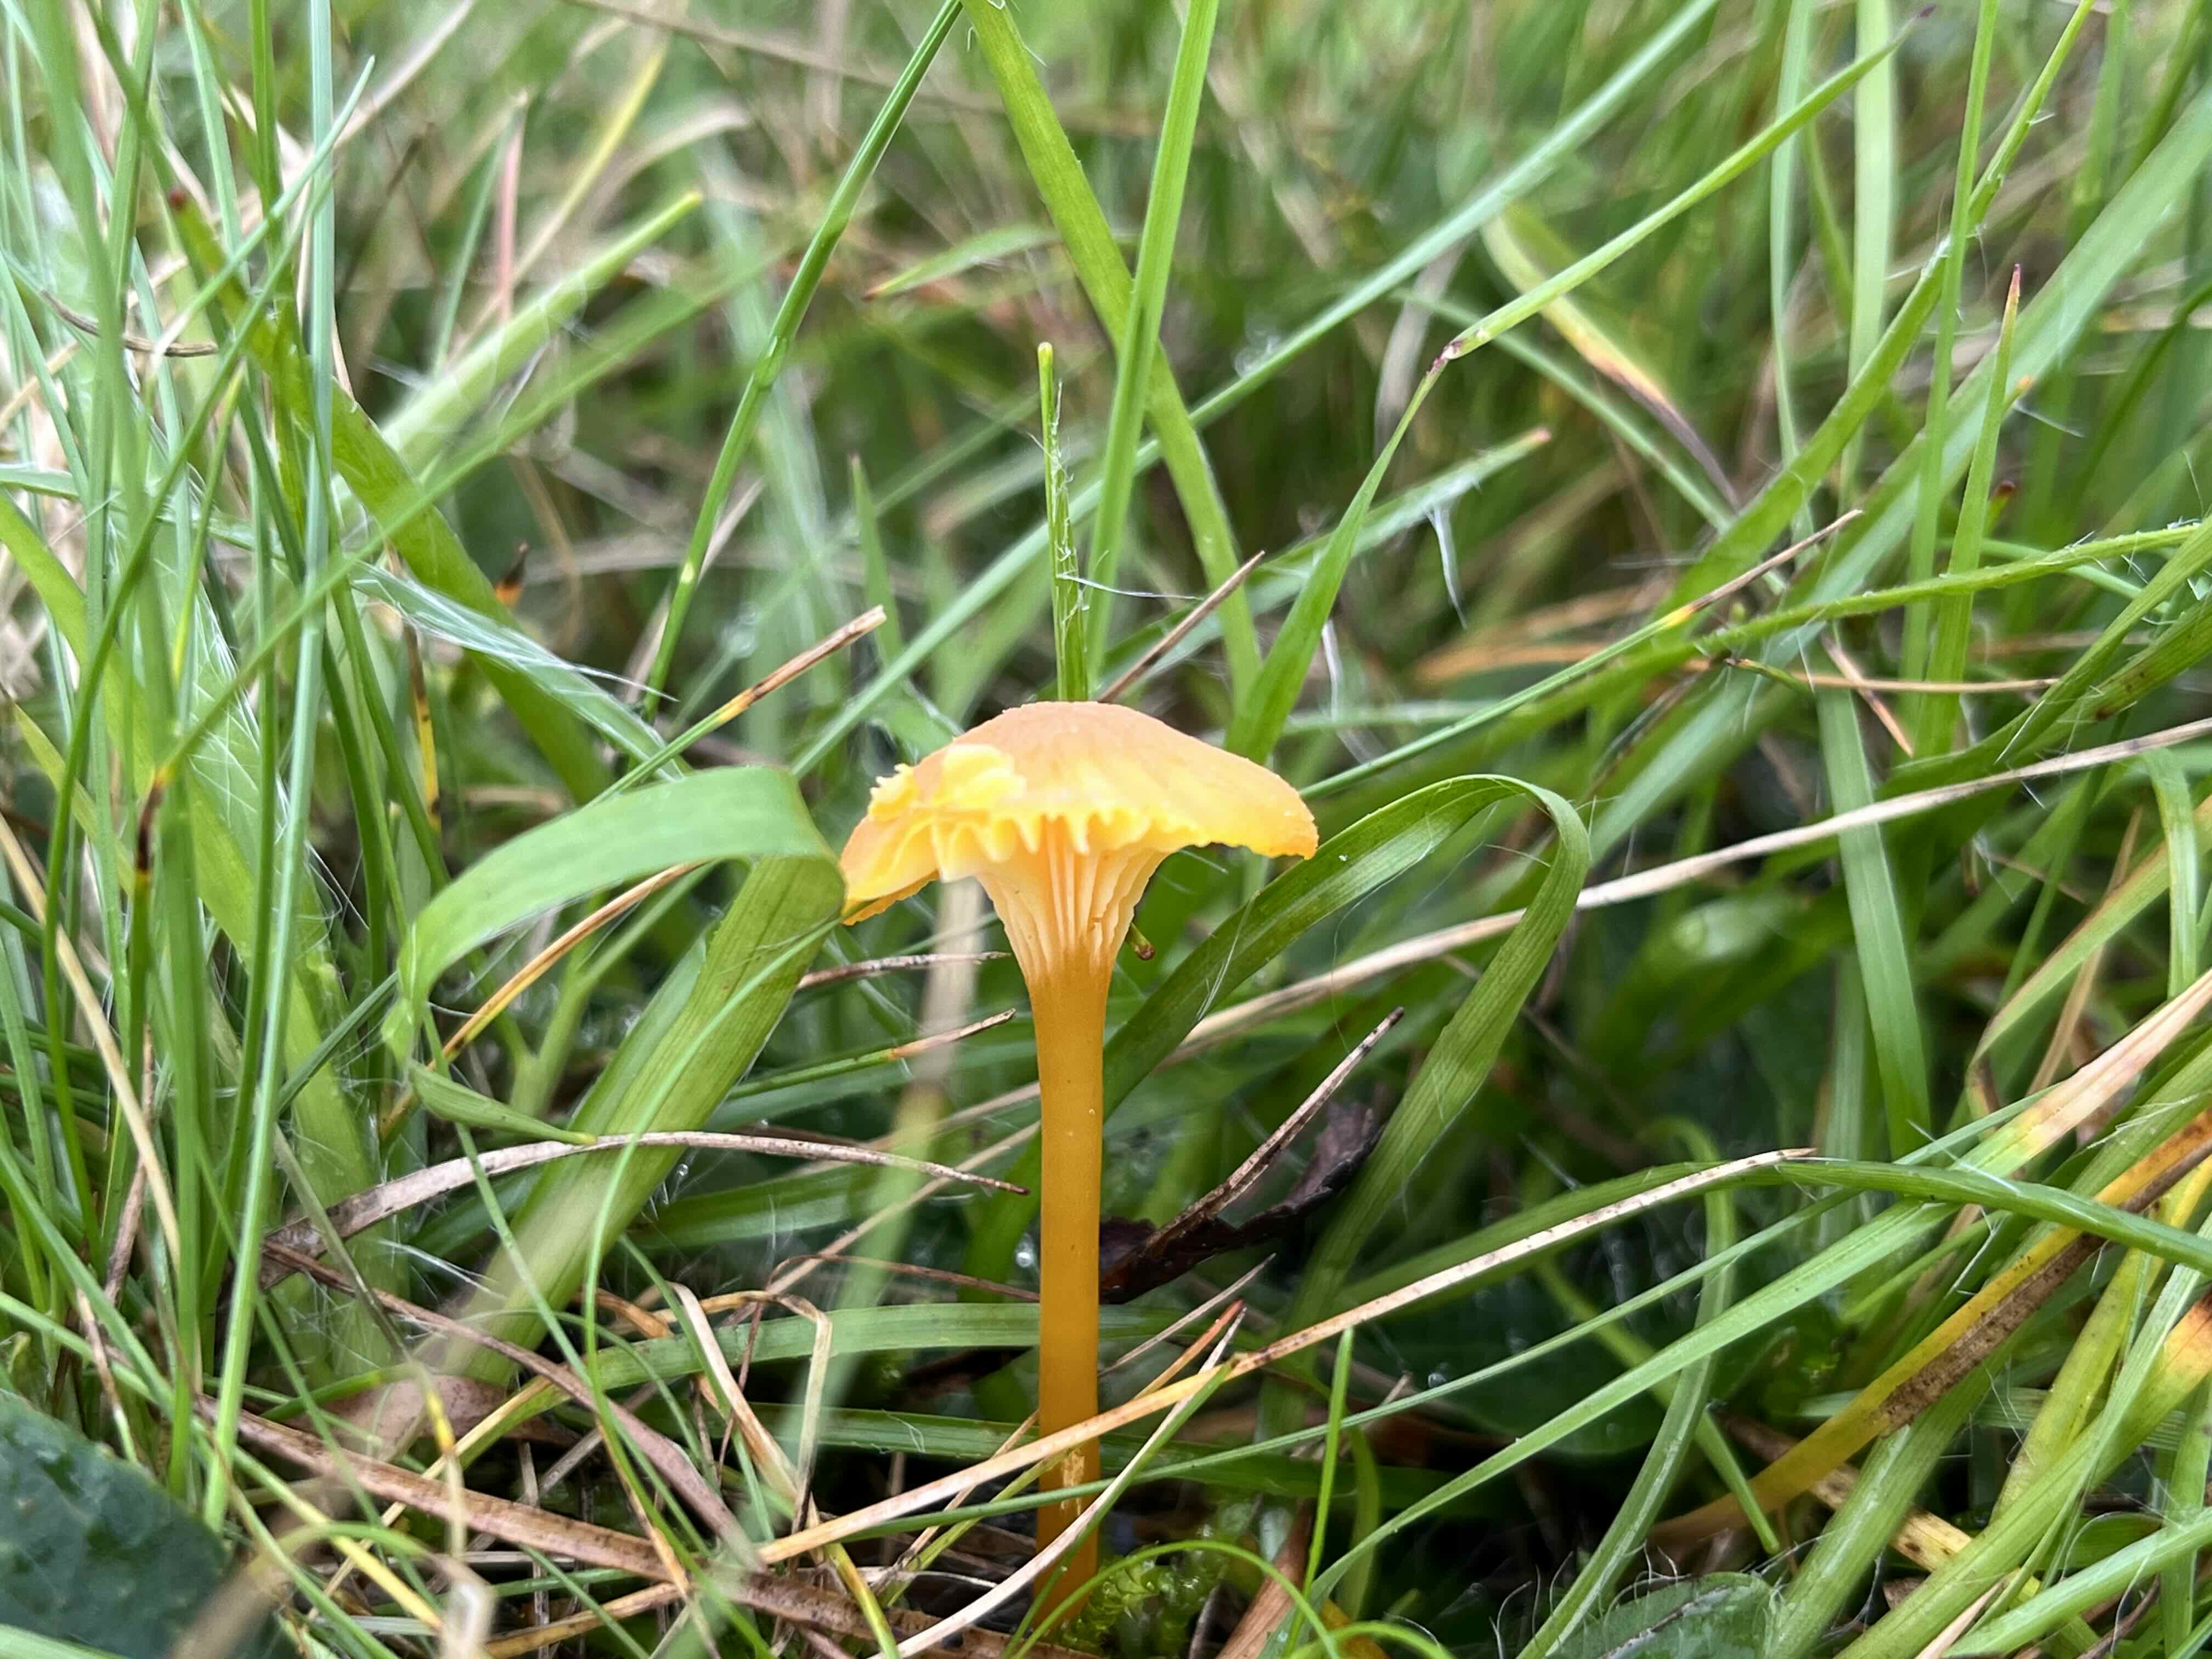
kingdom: Fungi
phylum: Basidiomycota
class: Agaricomycetes
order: Agaricales
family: Hygrophoraceae
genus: Hygrocybe
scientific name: Hygrocybe cantharellus
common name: kantarel-vokshat
